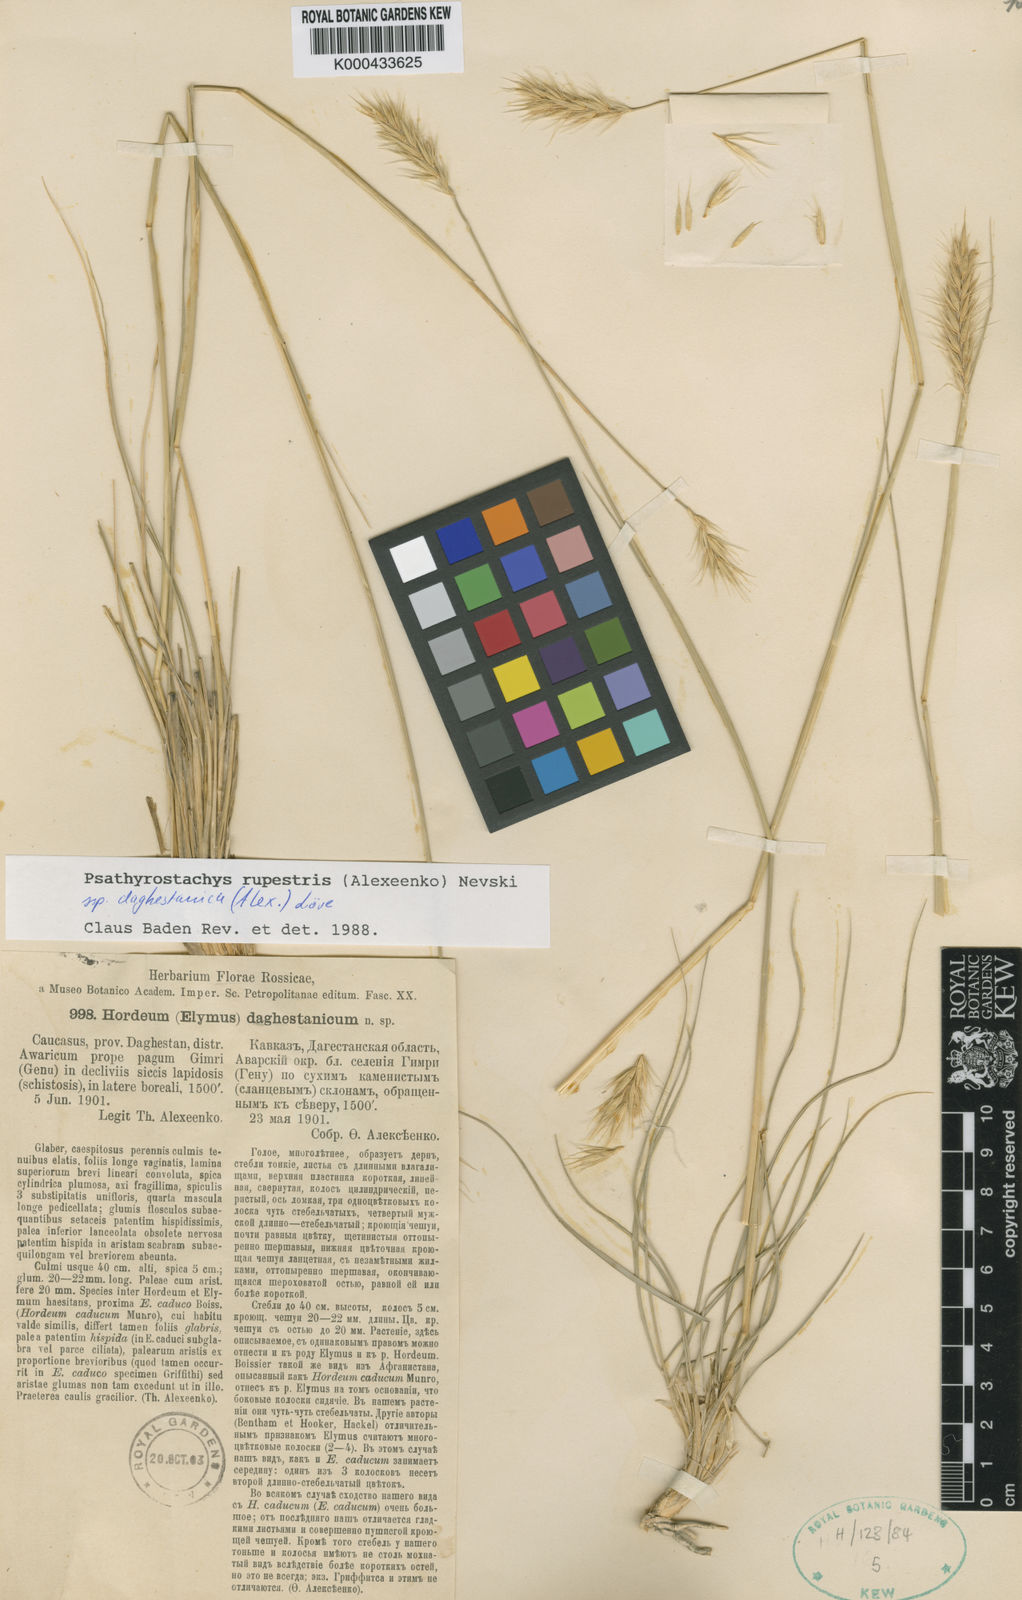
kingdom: Plantae
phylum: Tracheophyta
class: Liliopsida
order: Poales
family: Poaceae
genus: Psathyrostachys
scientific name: Psathyrostachys
